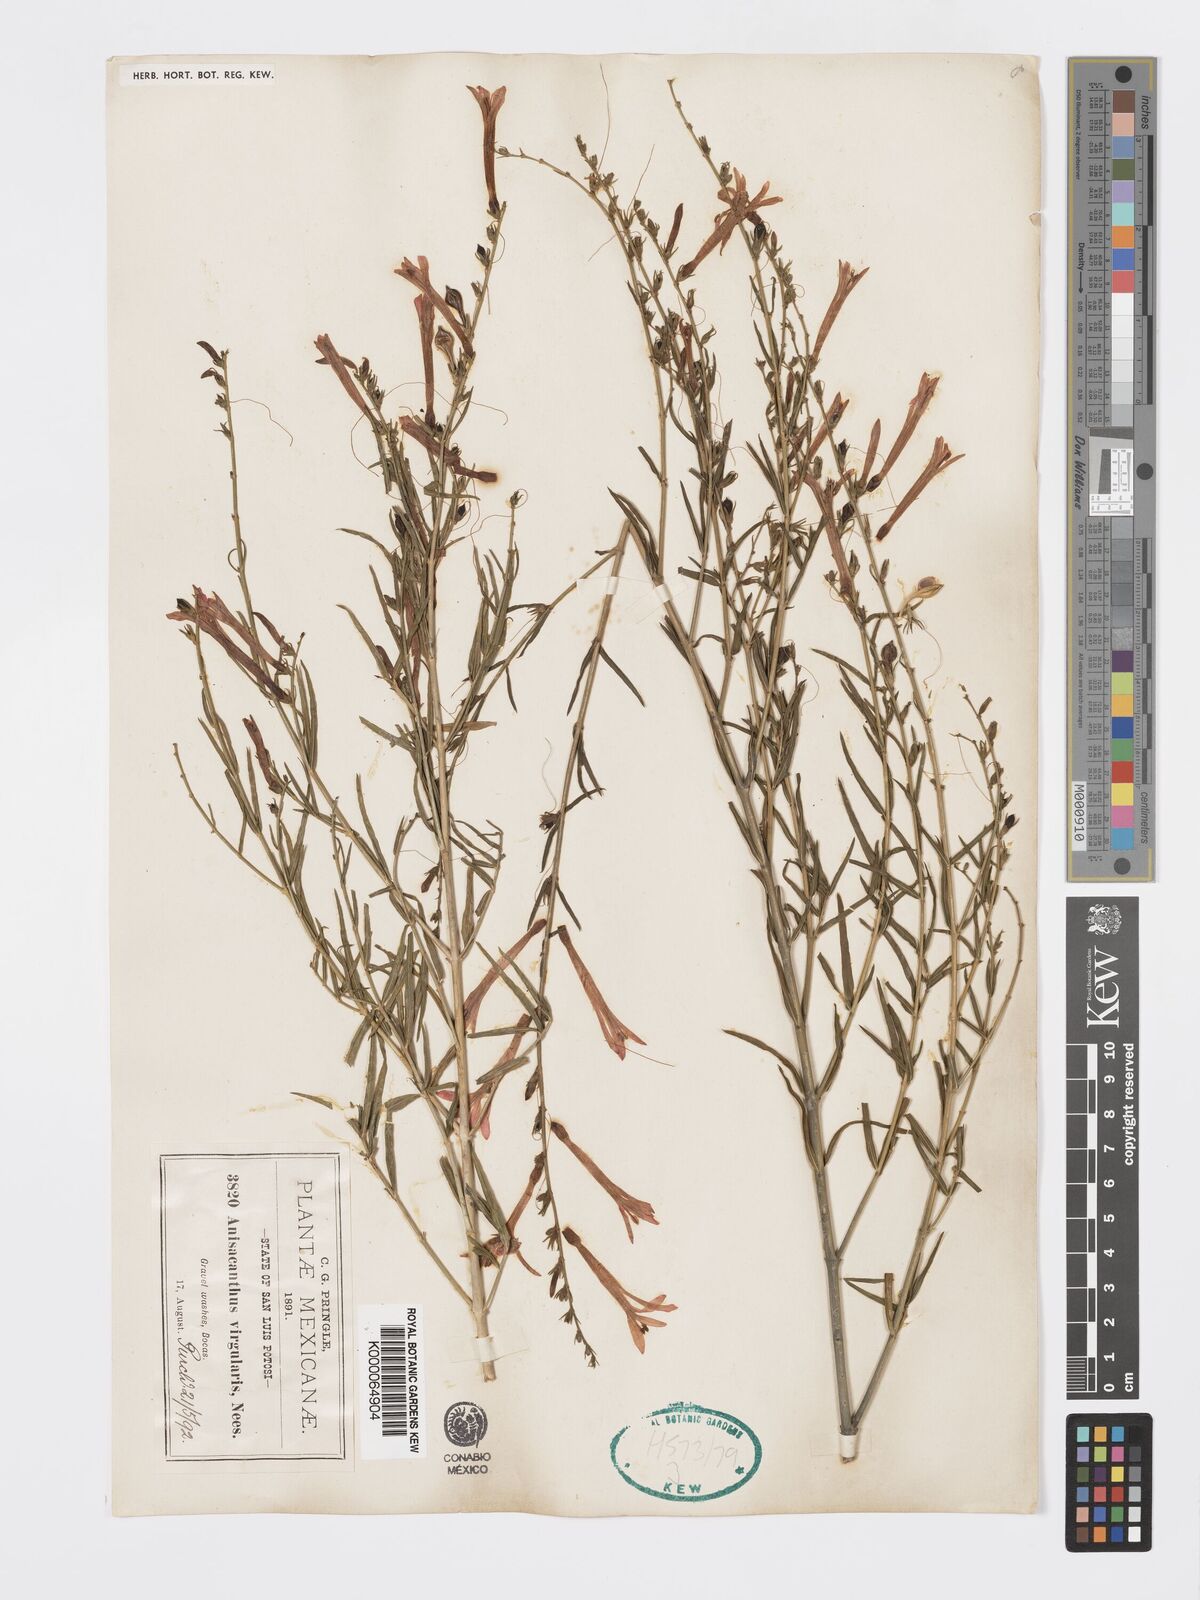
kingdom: Plantae
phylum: Tracheophyta
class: Magnoliopsida
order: Lamiales
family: Acanthaceae
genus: Anisacanthus
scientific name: Anisacanthus quadrifidus
